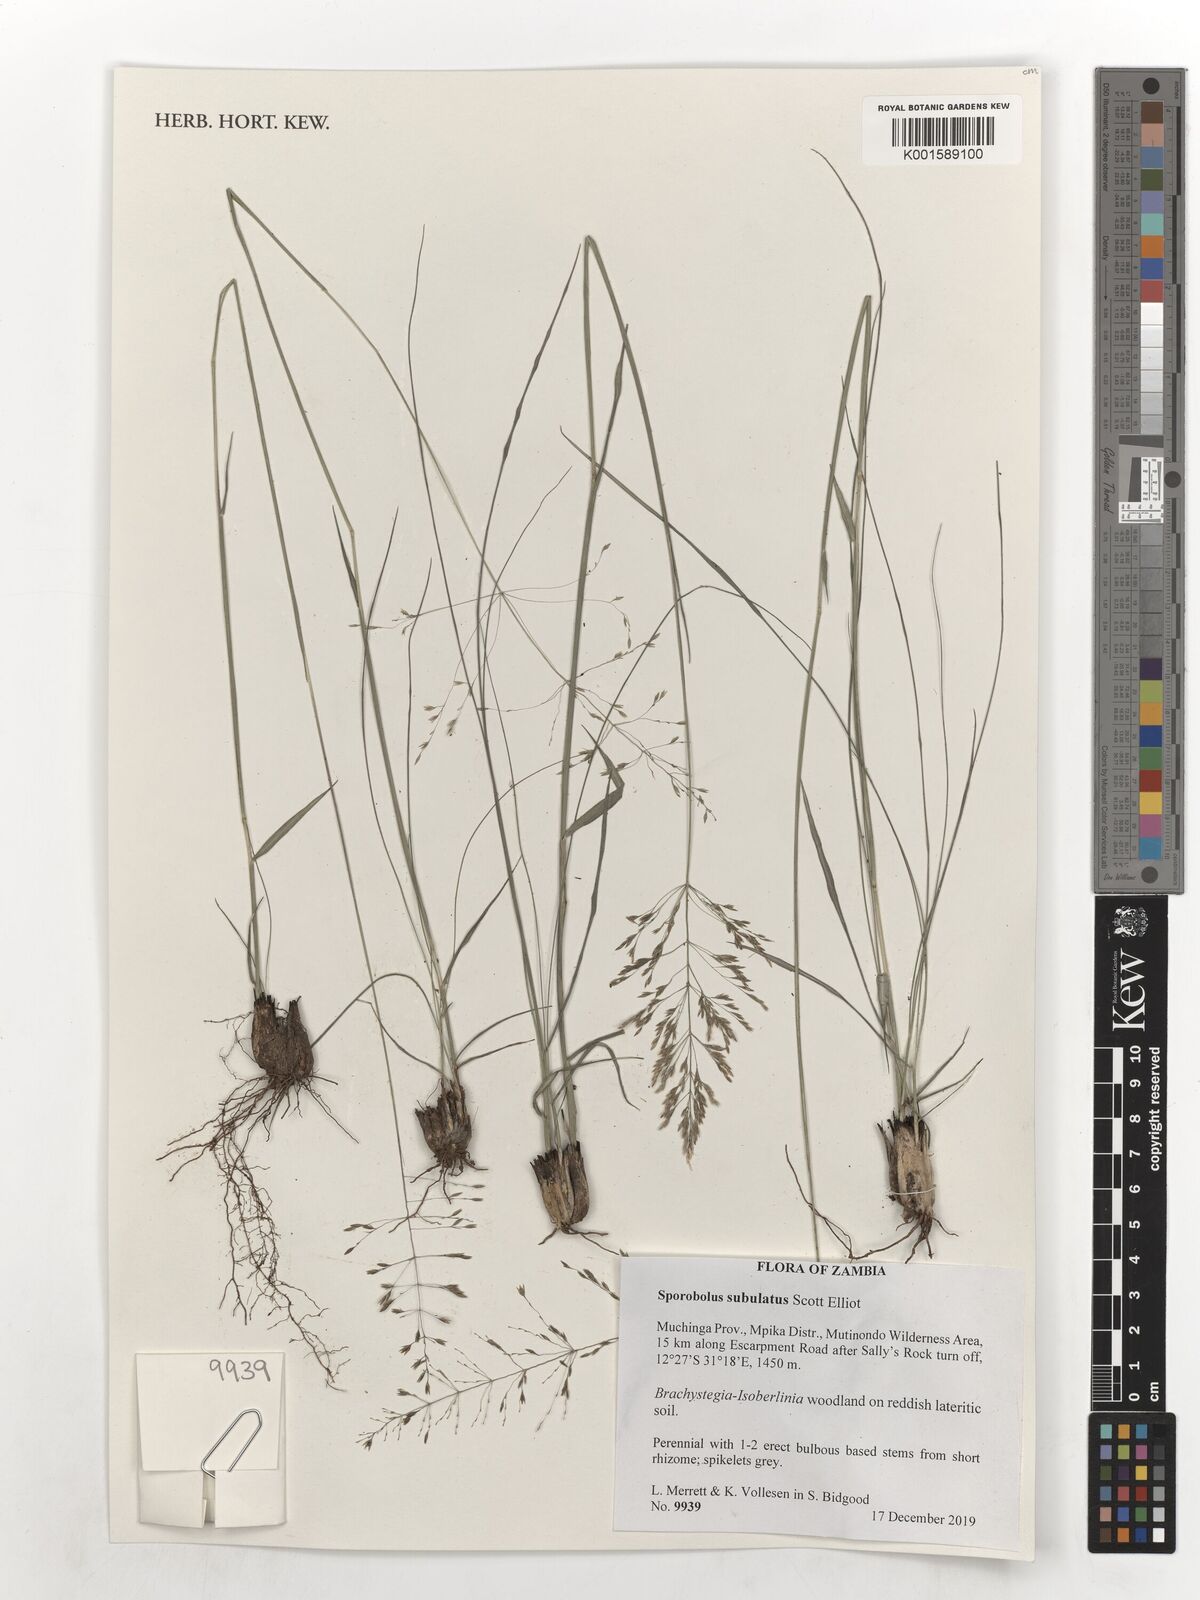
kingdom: Plantae
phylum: Tracheophyta
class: Liliopsida
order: Poales
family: Poaceae
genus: Sporobolus
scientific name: Sporobolus subulatus
